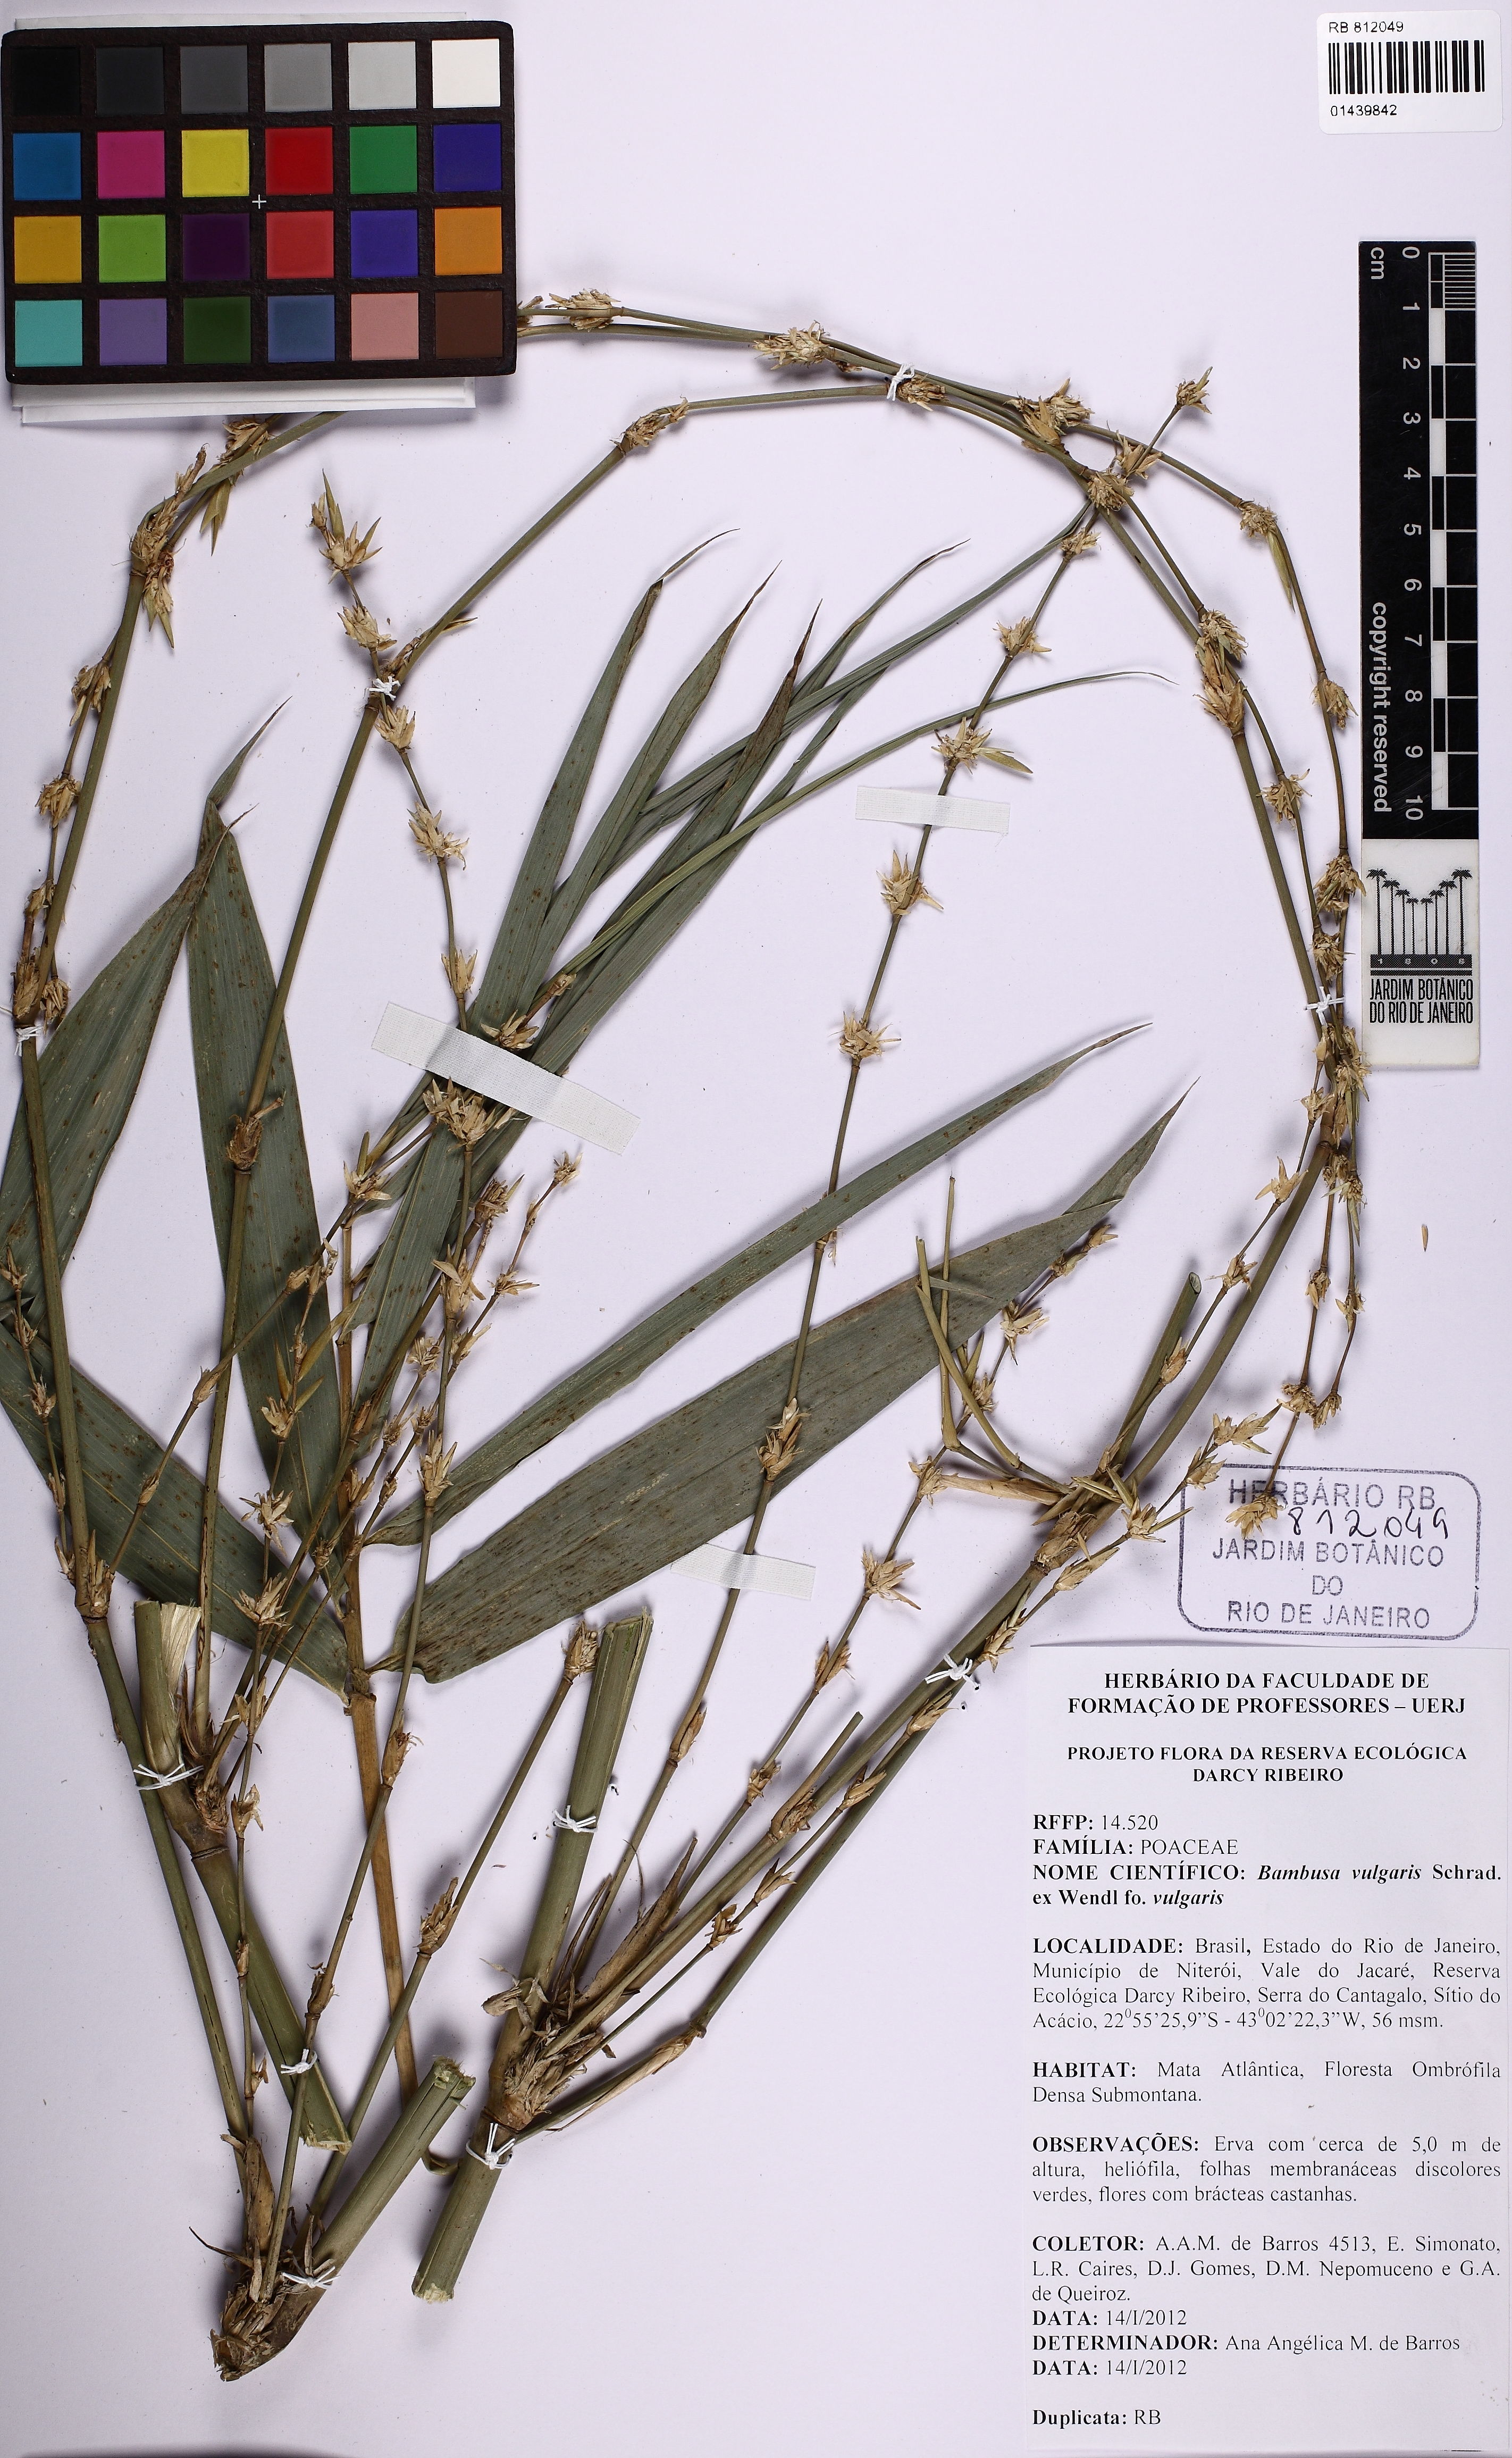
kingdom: Plantae
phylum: Tracheophyta
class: Liliopsida
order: Poales
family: Poaceae
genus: Bambusa
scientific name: Bambusa vulgaris
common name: Common bamboo
